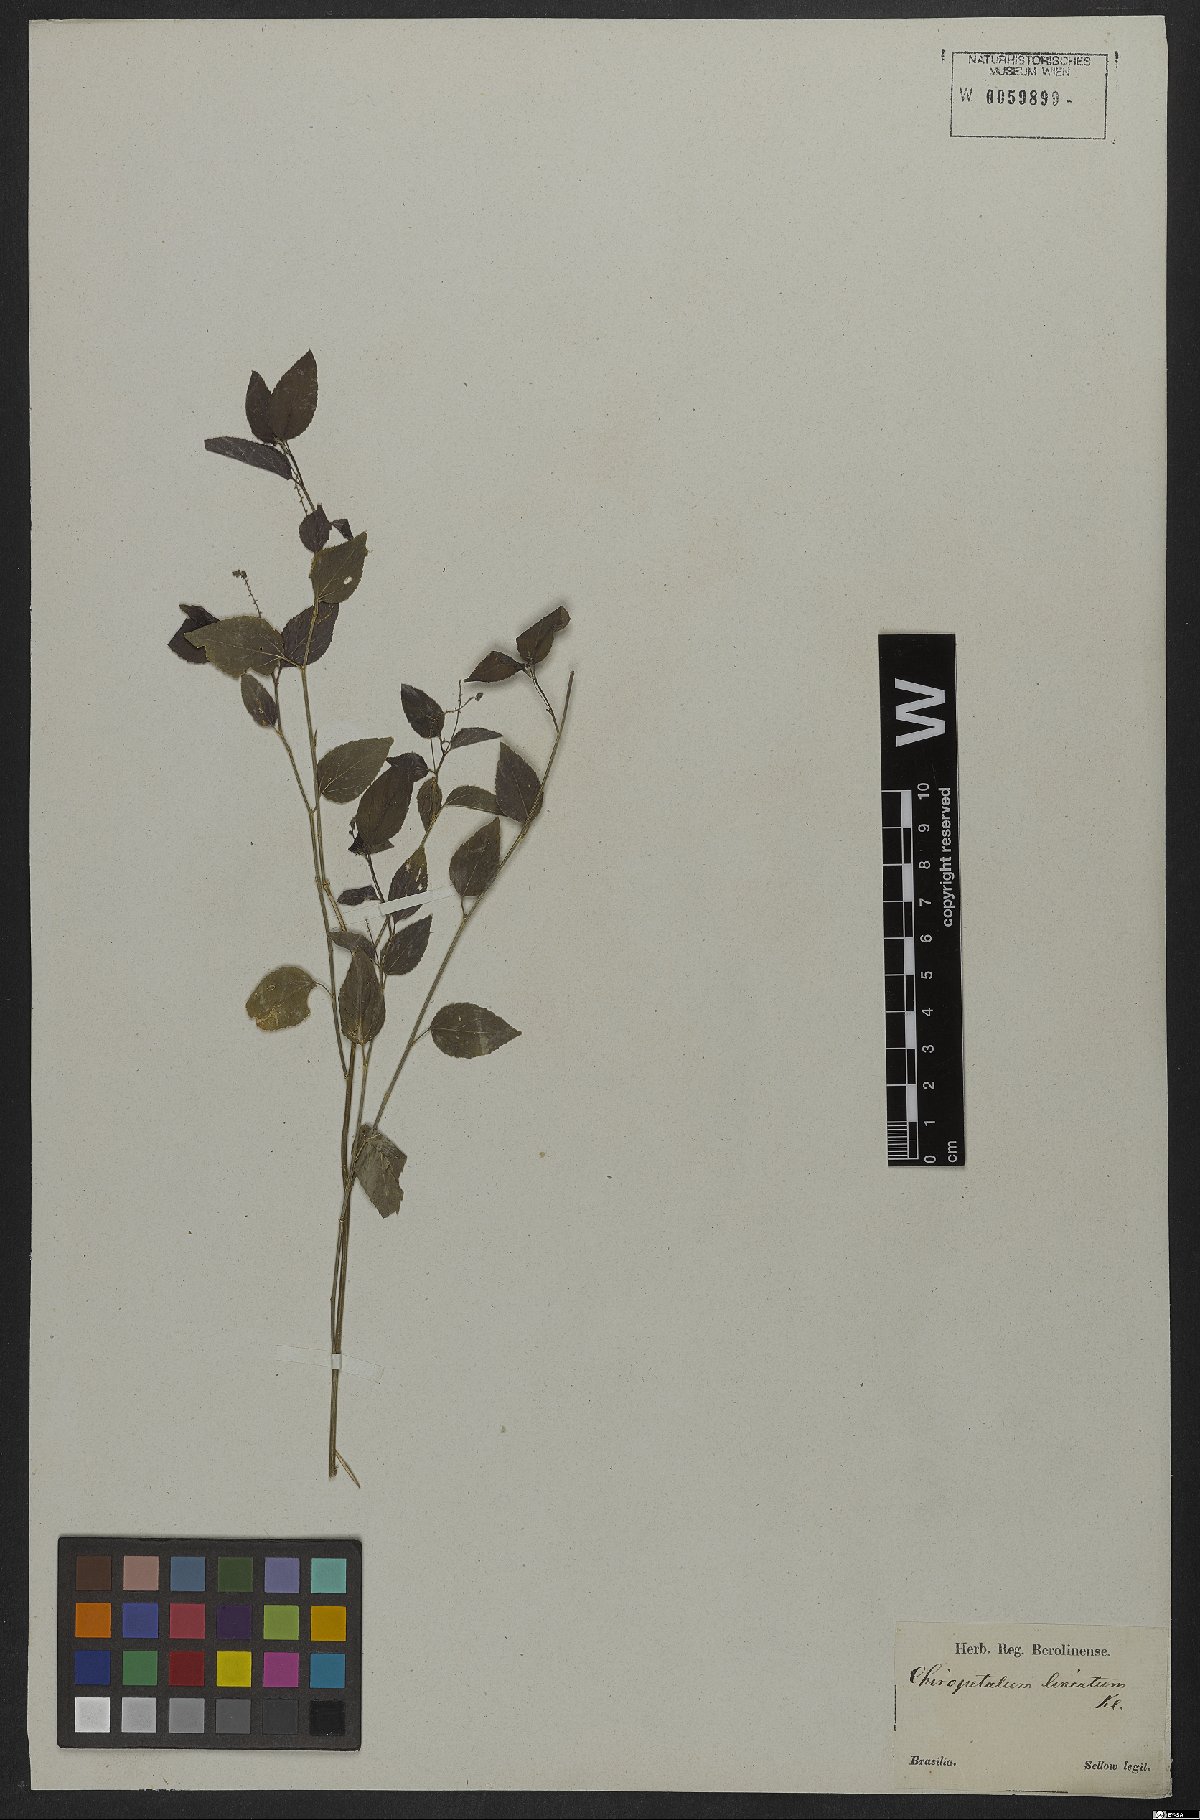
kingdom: Plantae
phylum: Tracheophyta
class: Magnoliopsida
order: Malpighiales
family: Euphorbiaceae
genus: Chiropetalum
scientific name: Chiropetalum tricoccum
